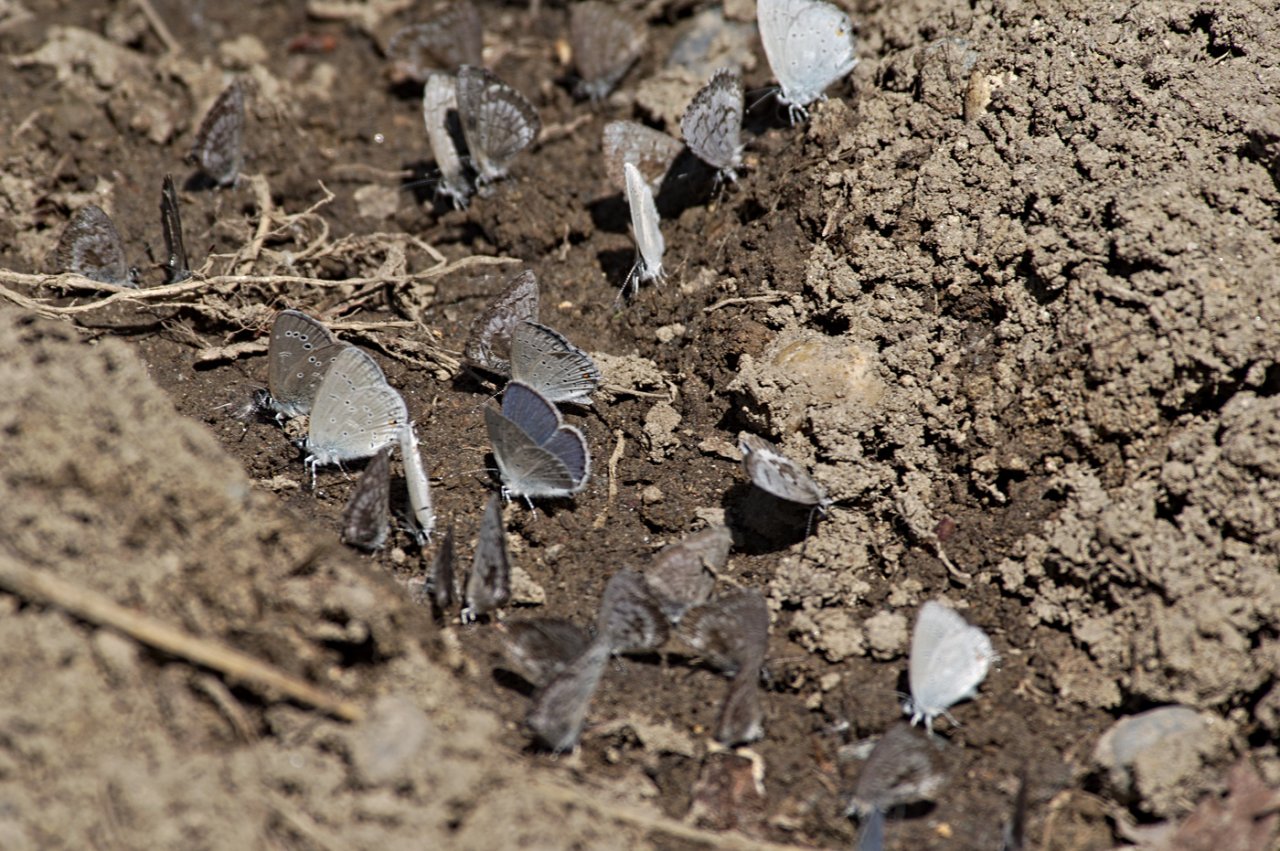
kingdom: Animalia
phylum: Arthropoda
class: Insecta
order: Lepidoptera
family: Lycaenidae
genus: Elkalyce
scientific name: Elkalyce amyntula
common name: Western Tailed-Blue
